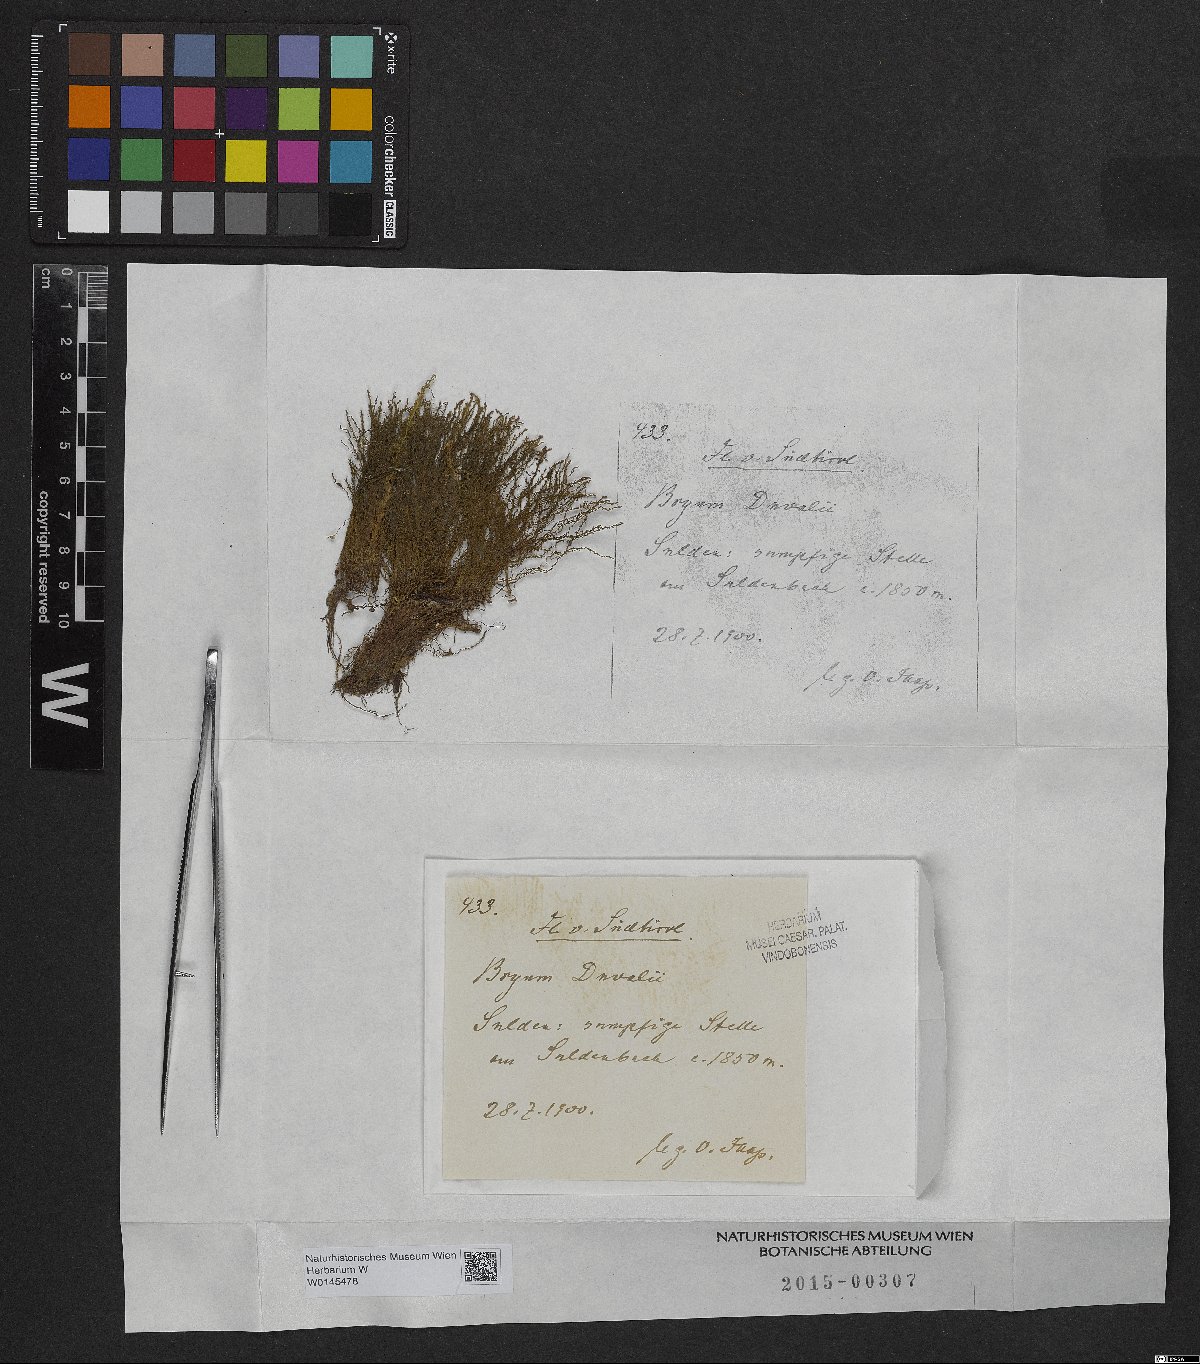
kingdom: Plantae
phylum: Bryophyta
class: Bryopsida
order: Bryales
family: Bryaceae
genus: Ptychostomum
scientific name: Ptychostomum weigelii
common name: Weigel's bryum moss
